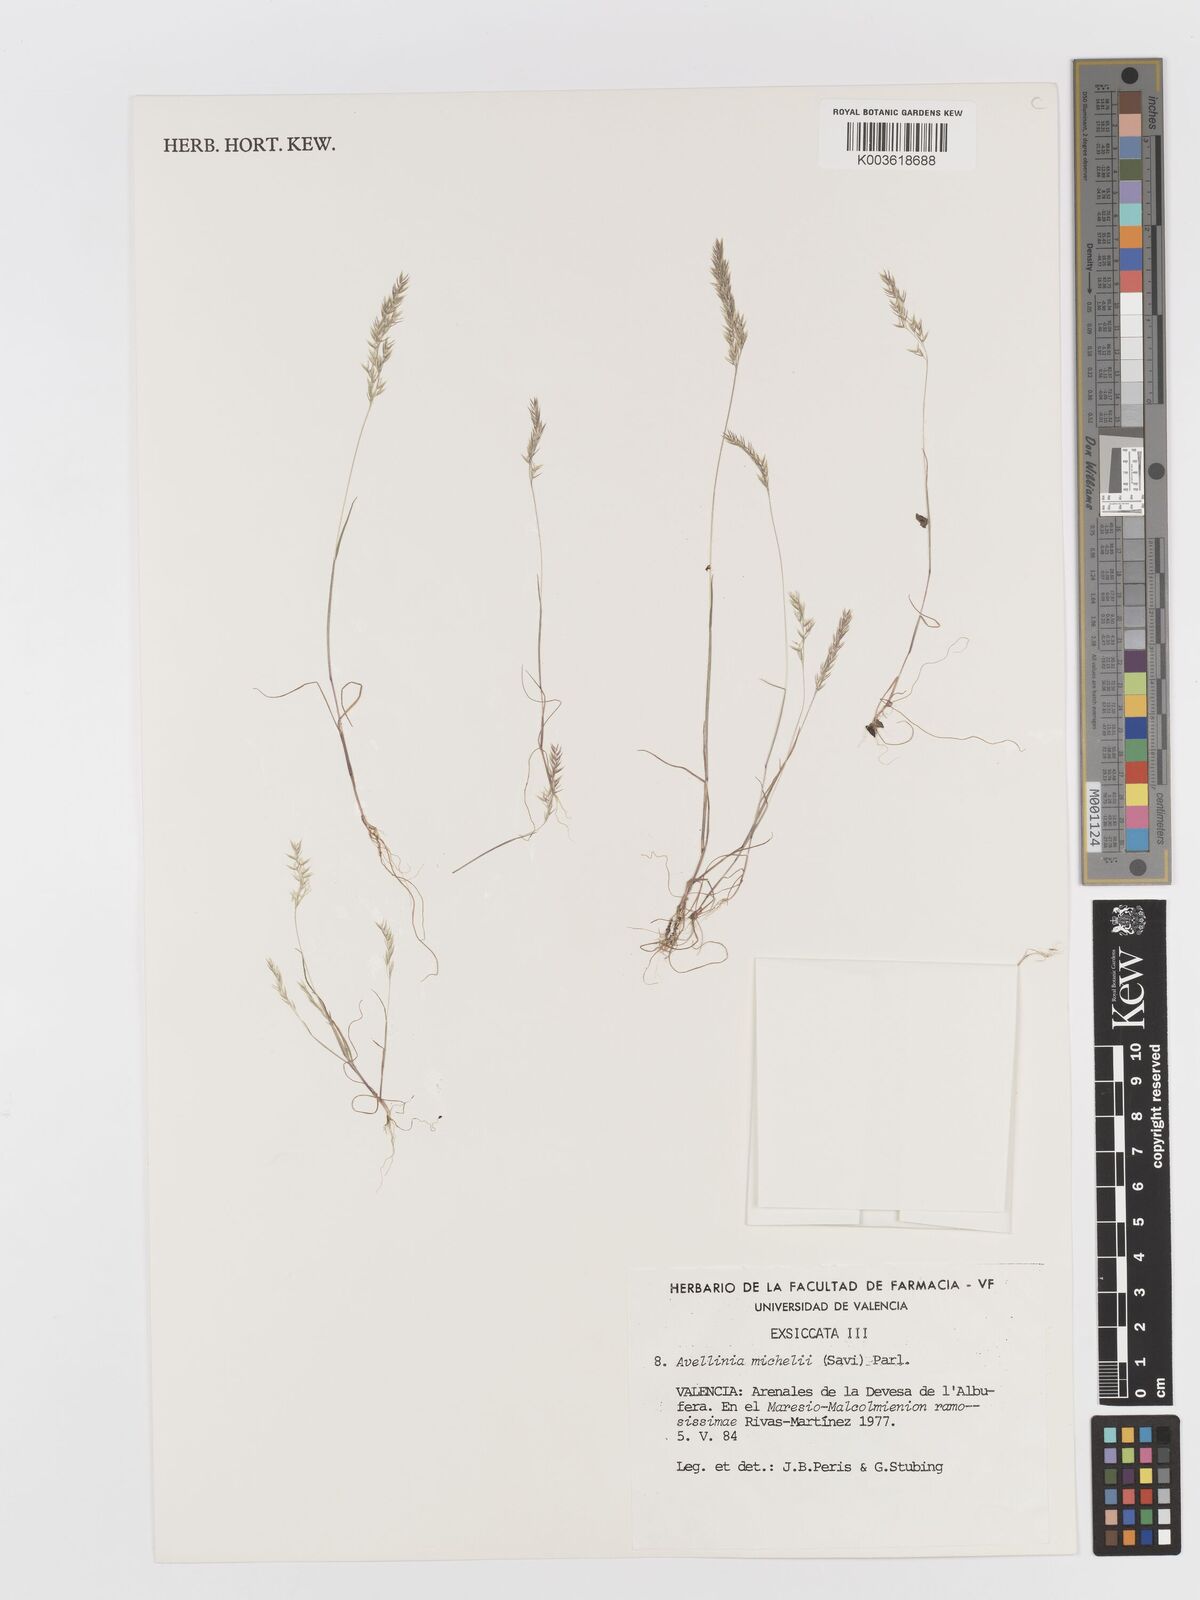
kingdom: Plantae
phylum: Tracheophyta
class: Liliopsida
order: Poales
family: Poaceae
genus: Avellinia
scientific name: Avellinia festucoides
